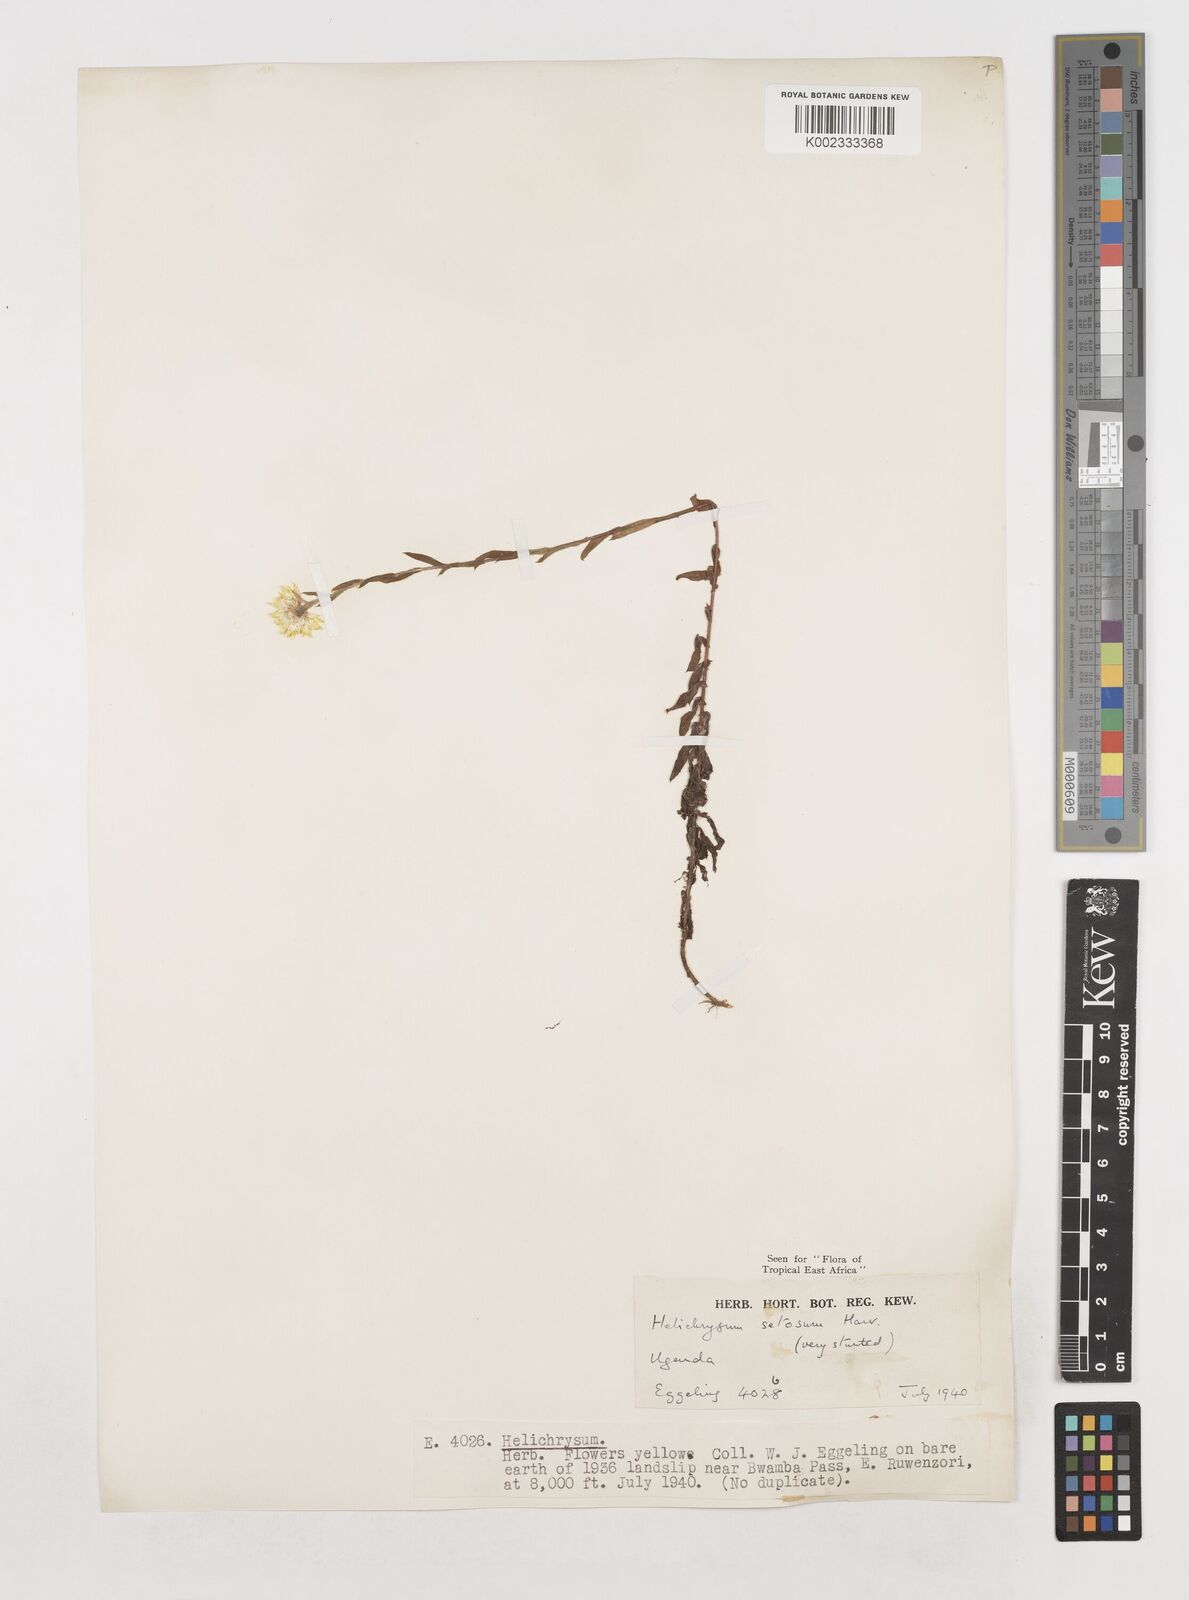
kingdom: Plantae
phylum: Tracheophyta
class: Magnoliopsida
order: Asterales
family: Asteraceae
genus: Helichrysum
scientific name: Helichrysum setosum
